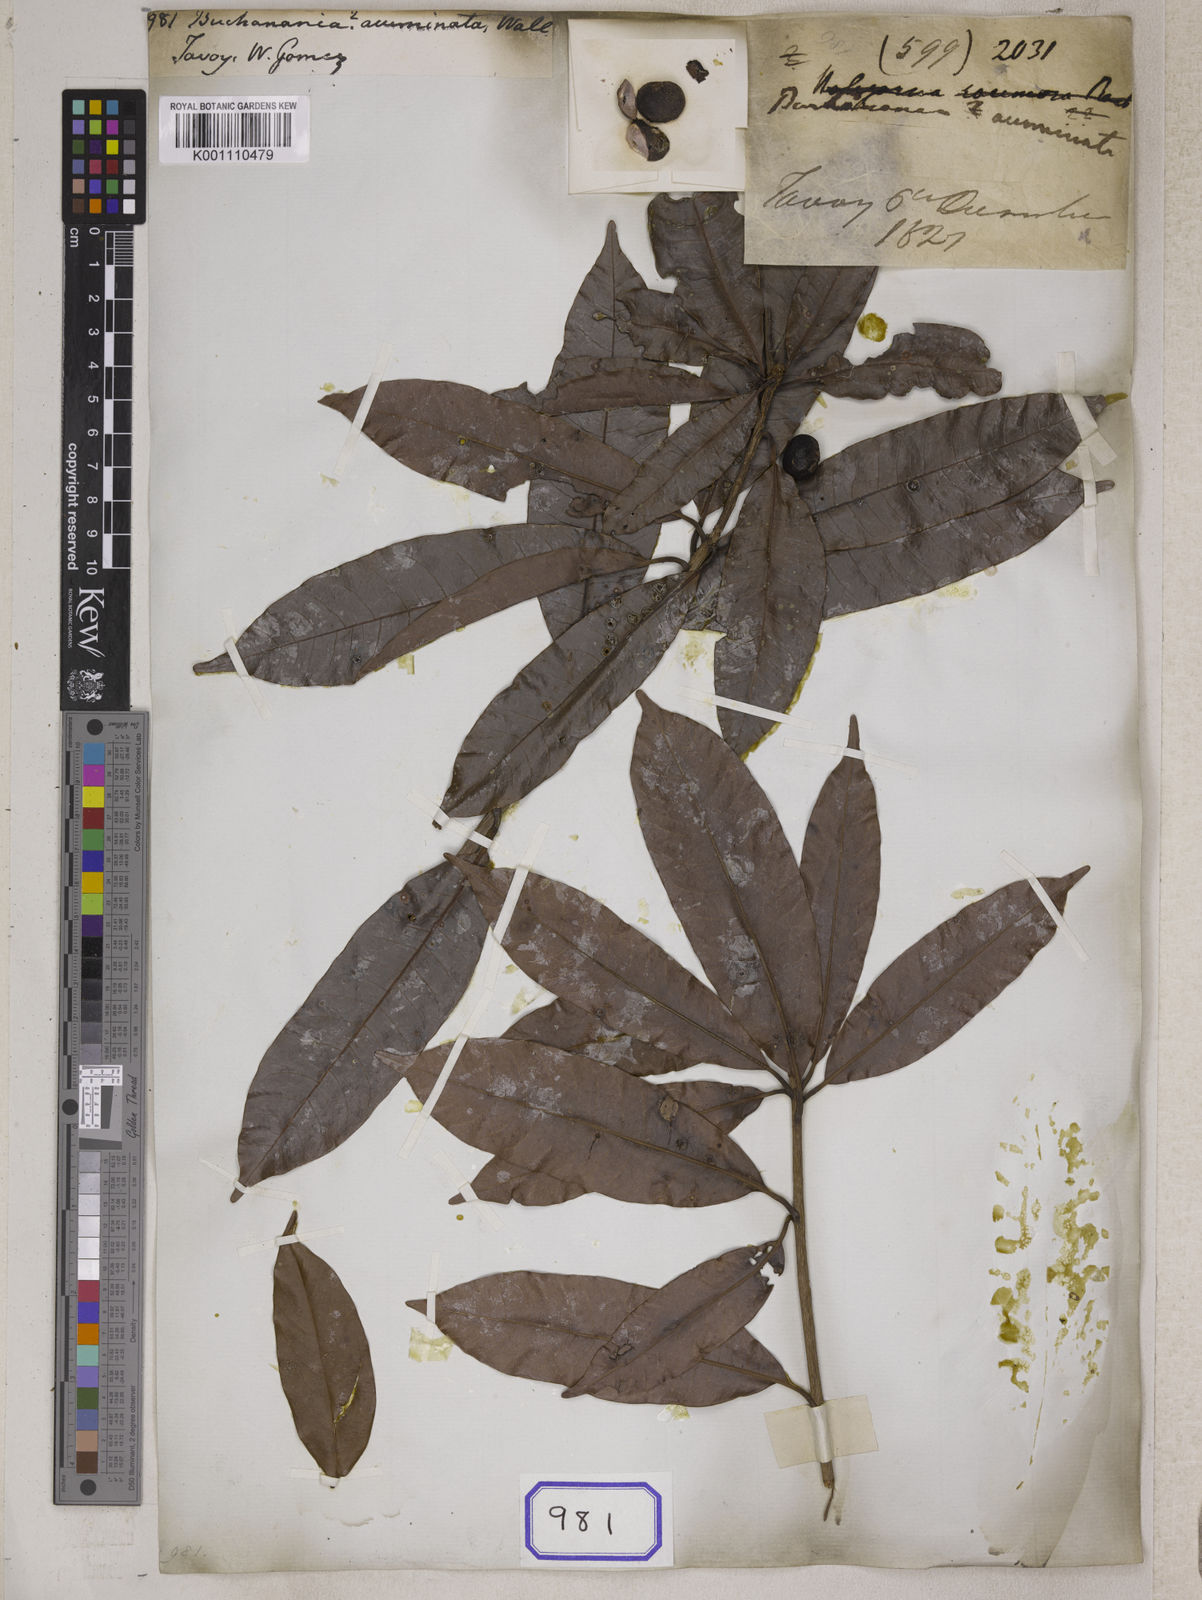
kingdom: Plantae
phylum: Tracheophyta
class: Magnoliopsida
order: Sapindales
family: Anacardiaceae
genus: Buchanania
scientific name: Buchanania
